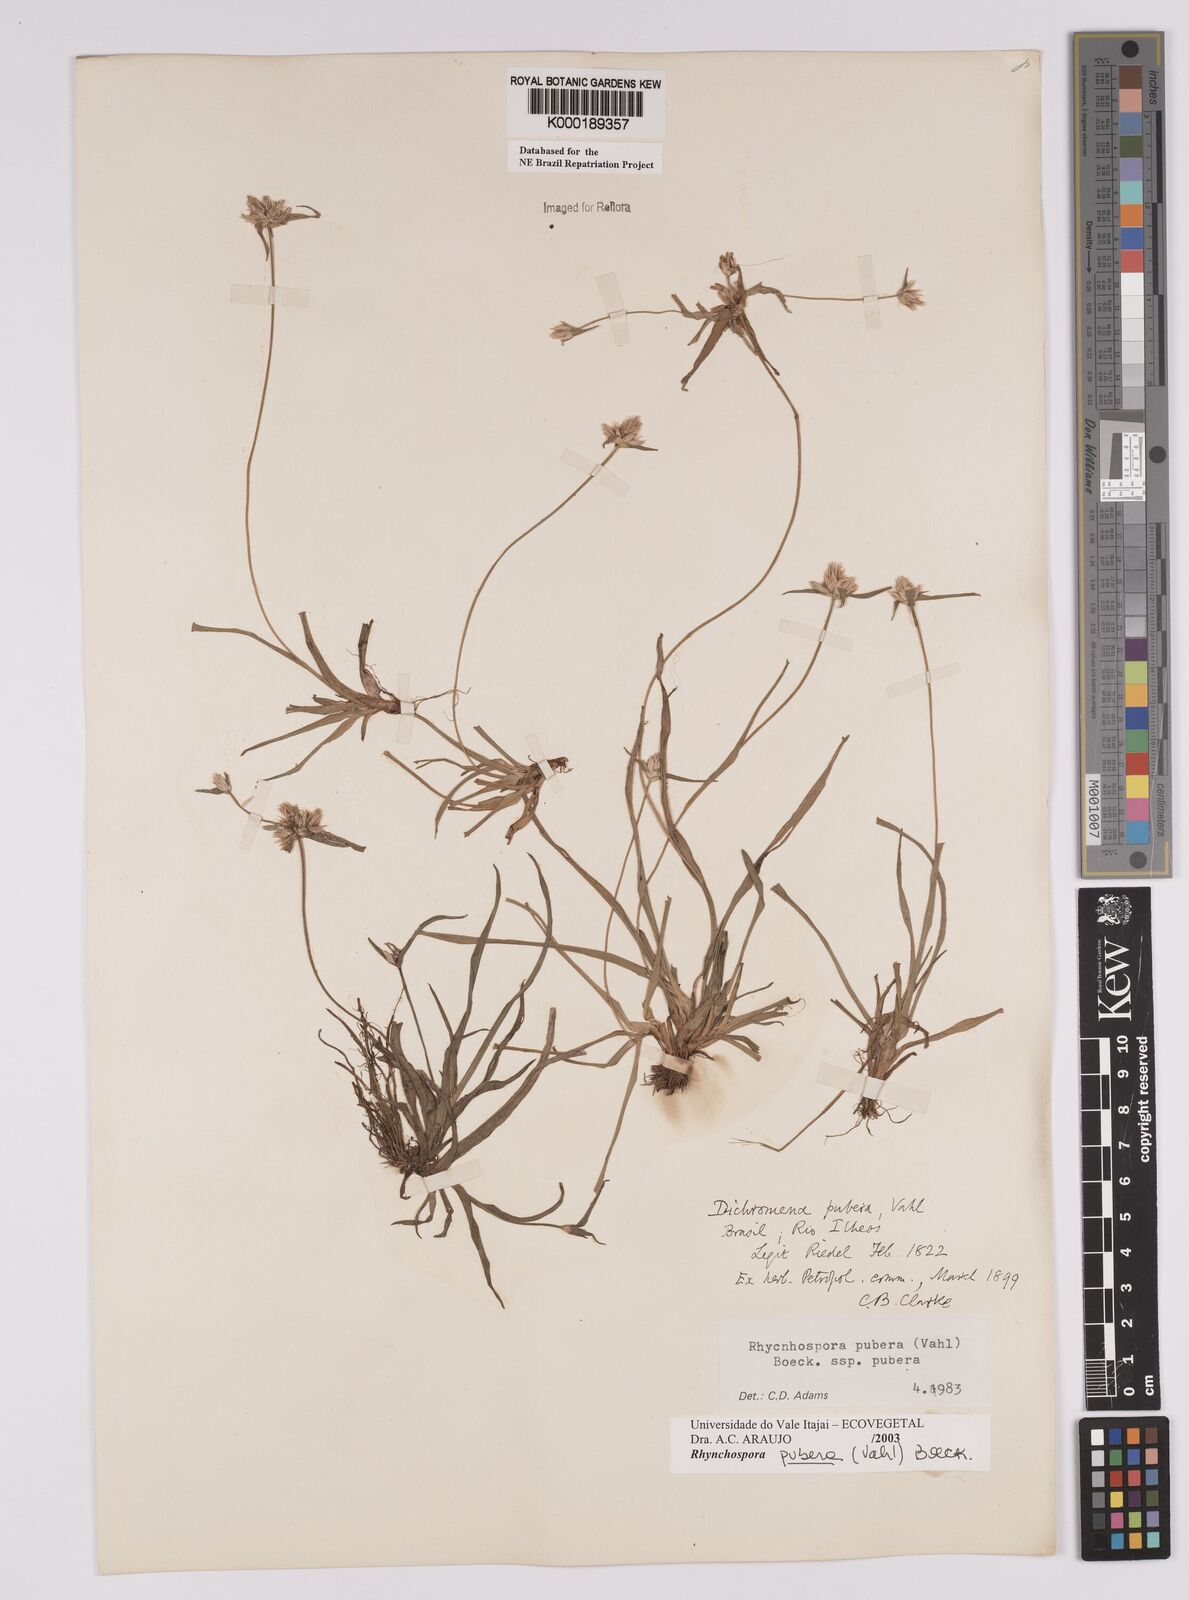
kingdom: Plantae
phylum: Tracheophyta
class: Liliopsida
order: Poales
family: Cyperaceae
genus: Rhynchospora
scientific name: Rhynchospora pubera
